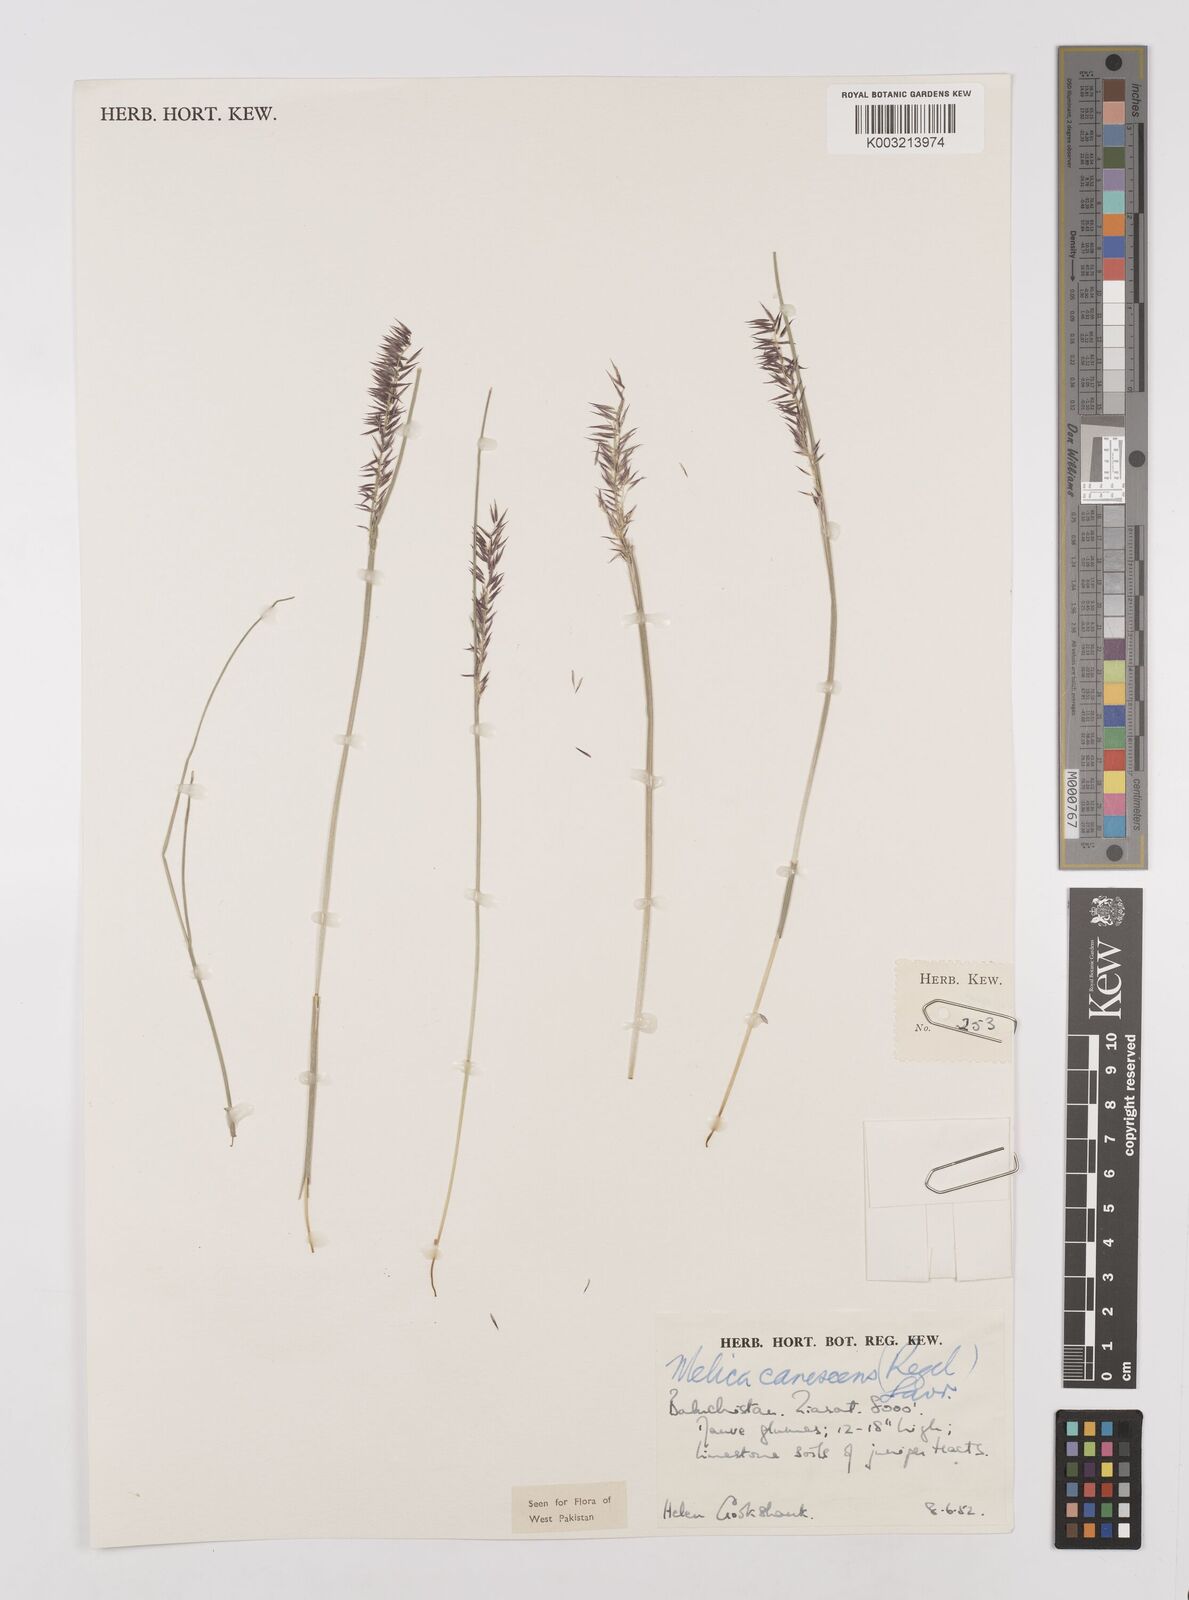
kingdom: Plantae
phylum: Tracheophyta
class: Liliopsida
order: Poales
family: Poaceae
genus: Melica
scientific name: Melica persica
